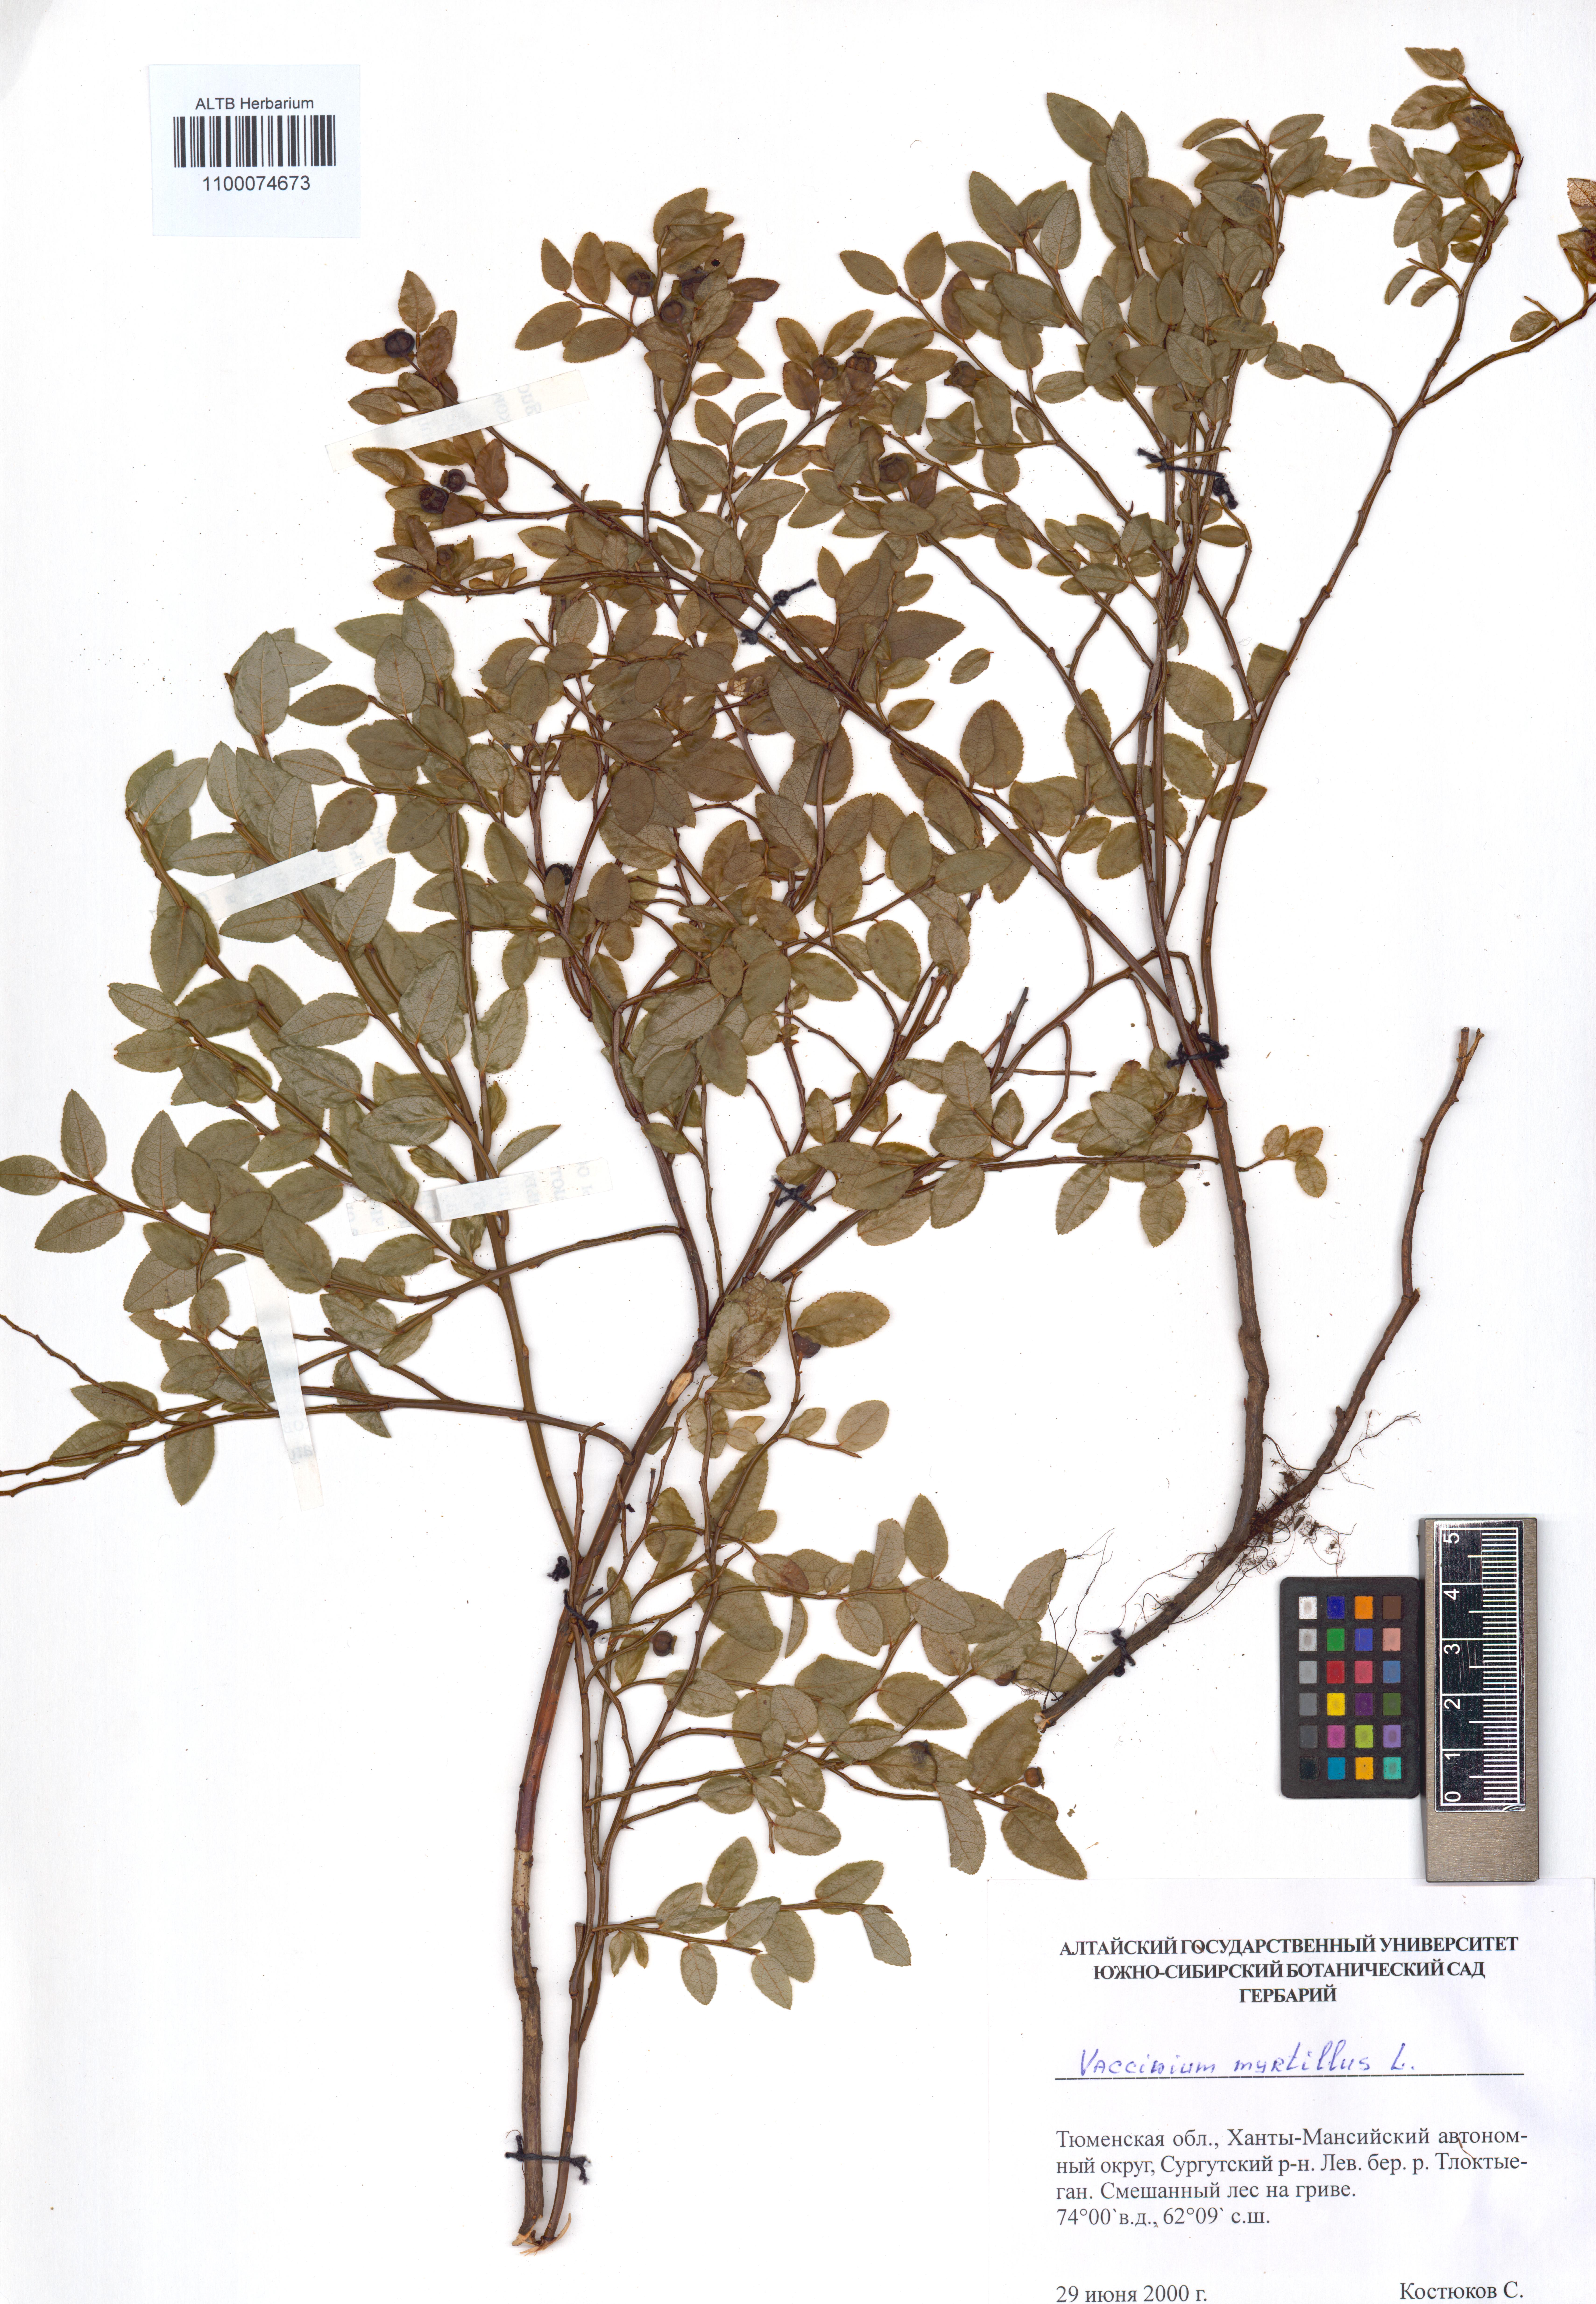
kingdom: Plantae
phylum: Tracheophyta
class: Magnoliopsida
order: Ericales
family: Ericaceae
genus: Vaccinium
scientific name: Vaccinium myrtillus
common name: Bilberry
